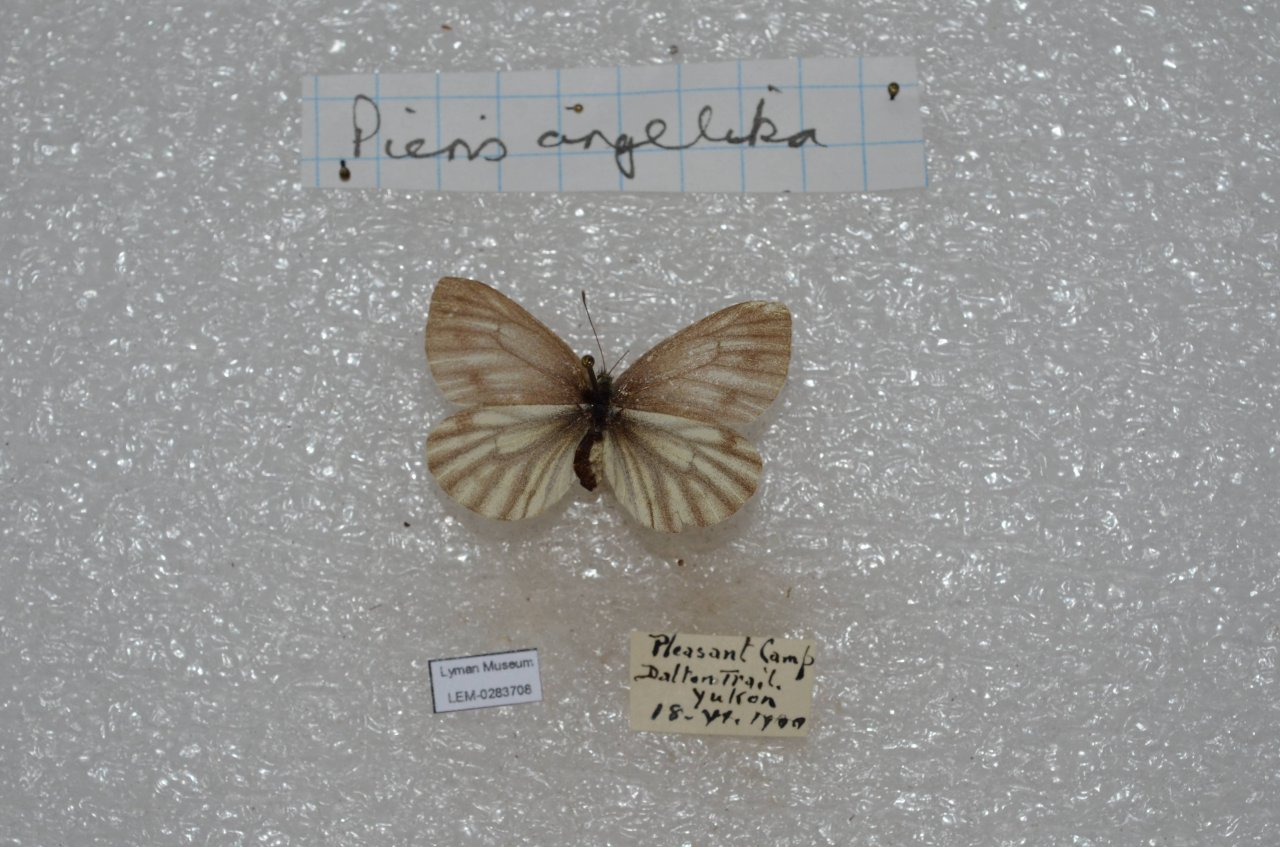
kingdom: Animalia
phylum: Arthropoda
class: Insecta
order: Lepidoptera
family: Pieridae
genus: Pieris
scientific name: Pieris angelika
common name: Arctic White
